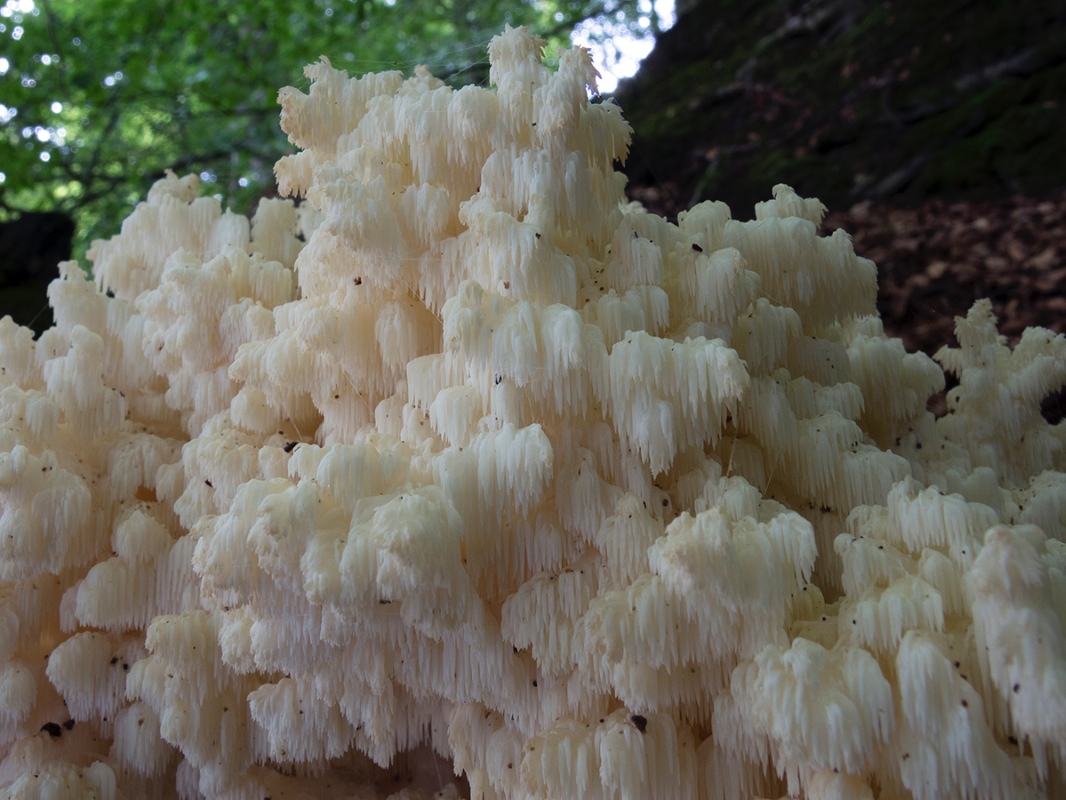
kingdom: Fungi
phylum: Basidiomycota
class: Agaricomycetes
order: Russulales
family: Hericiaceae
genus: Hericium
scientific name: Hericium coralloides
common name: koralpigsvamp
